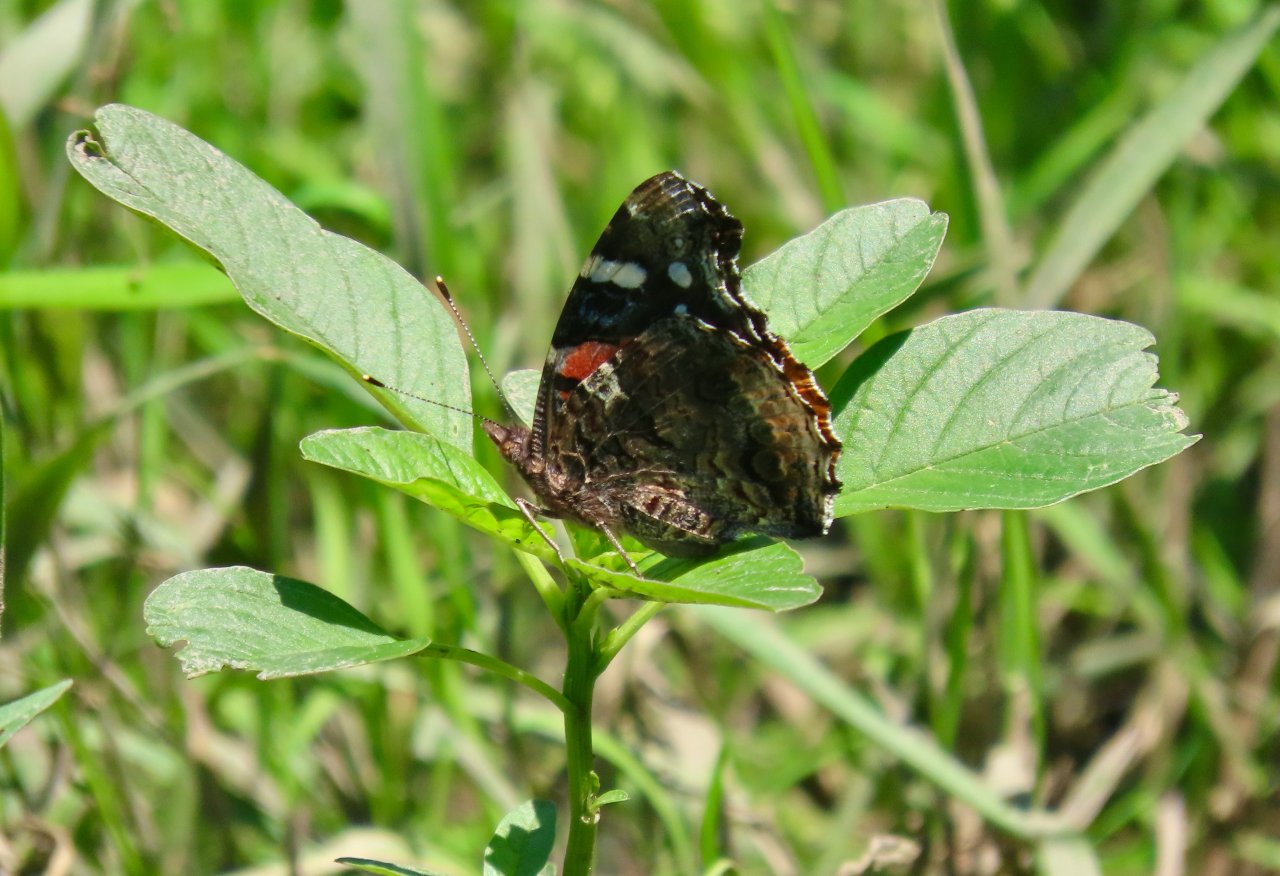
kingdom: Animalia
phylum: Arthropoda
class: Insecta
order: Lepidoptera
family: Nymphalidae
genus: Vanessa
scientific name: Vanessa atalanta
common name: Red Admiral
